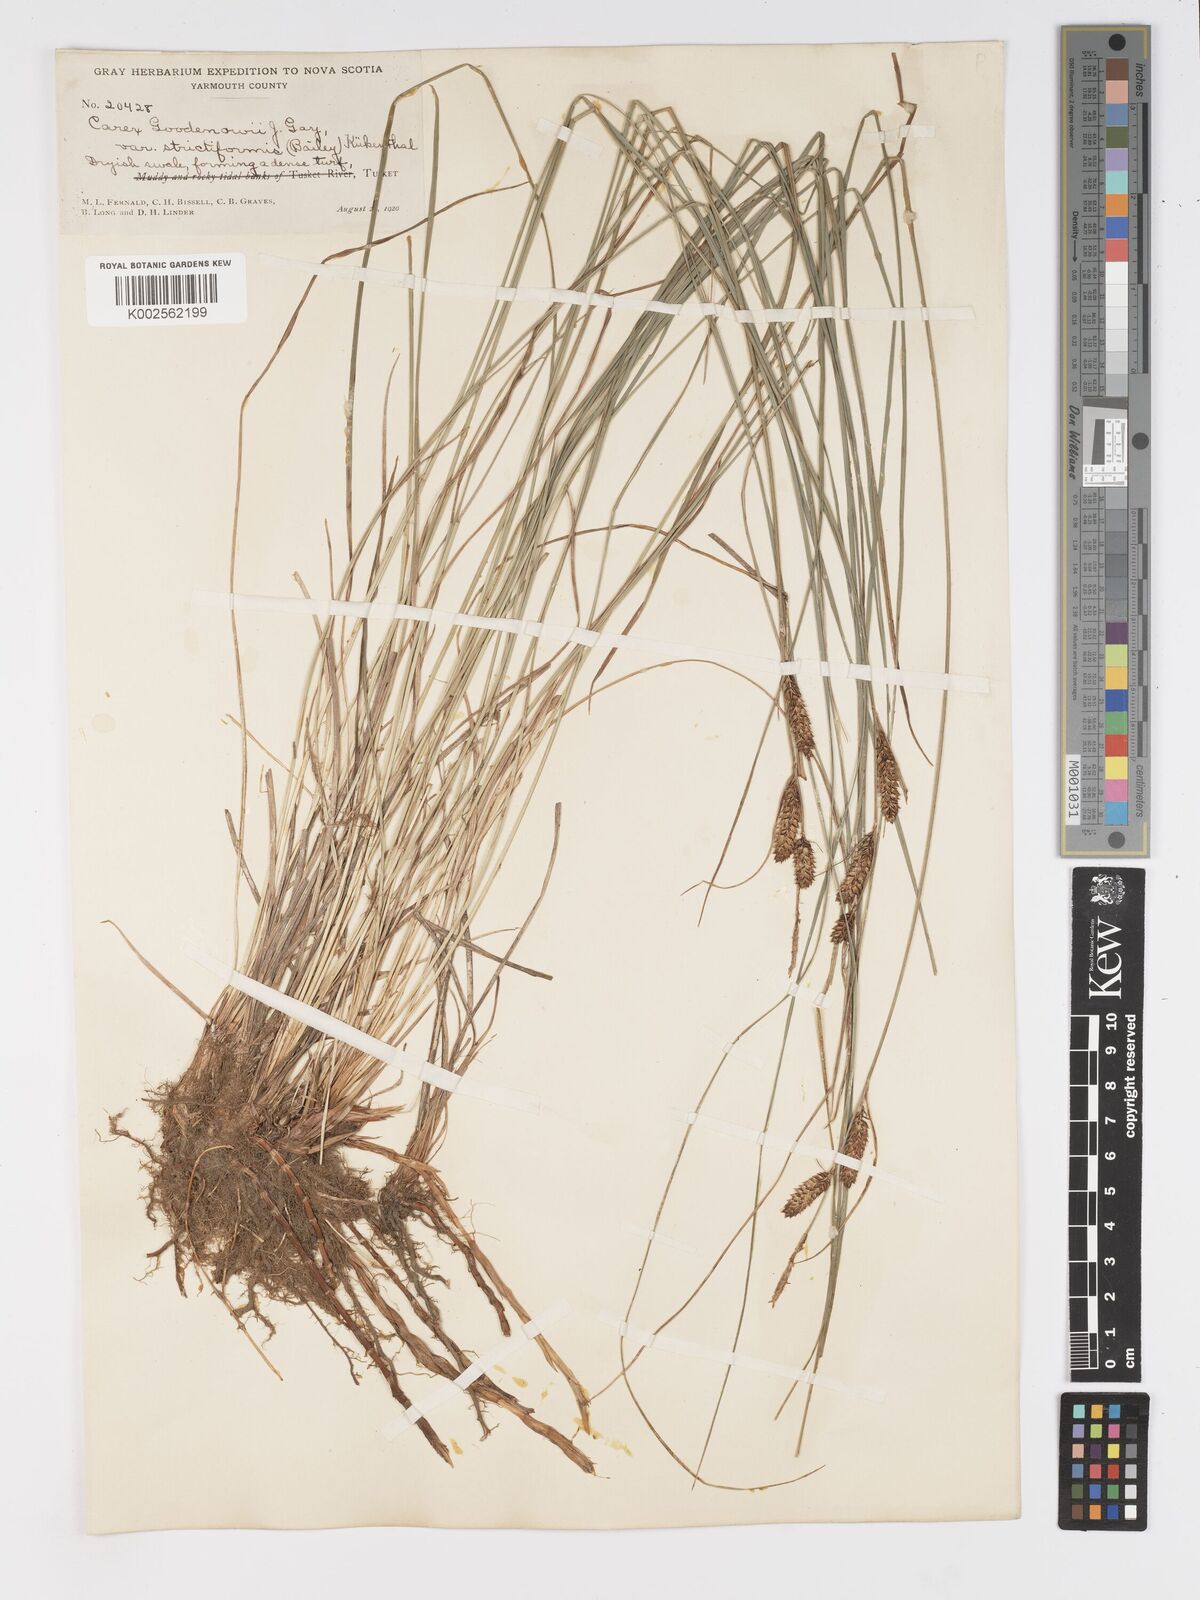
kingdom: Plantae
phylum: Tracheophyta
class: Liliopsida
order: Poales
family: Cyperaceae
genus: Carex
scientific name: Carex nigra
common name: Common sedge
